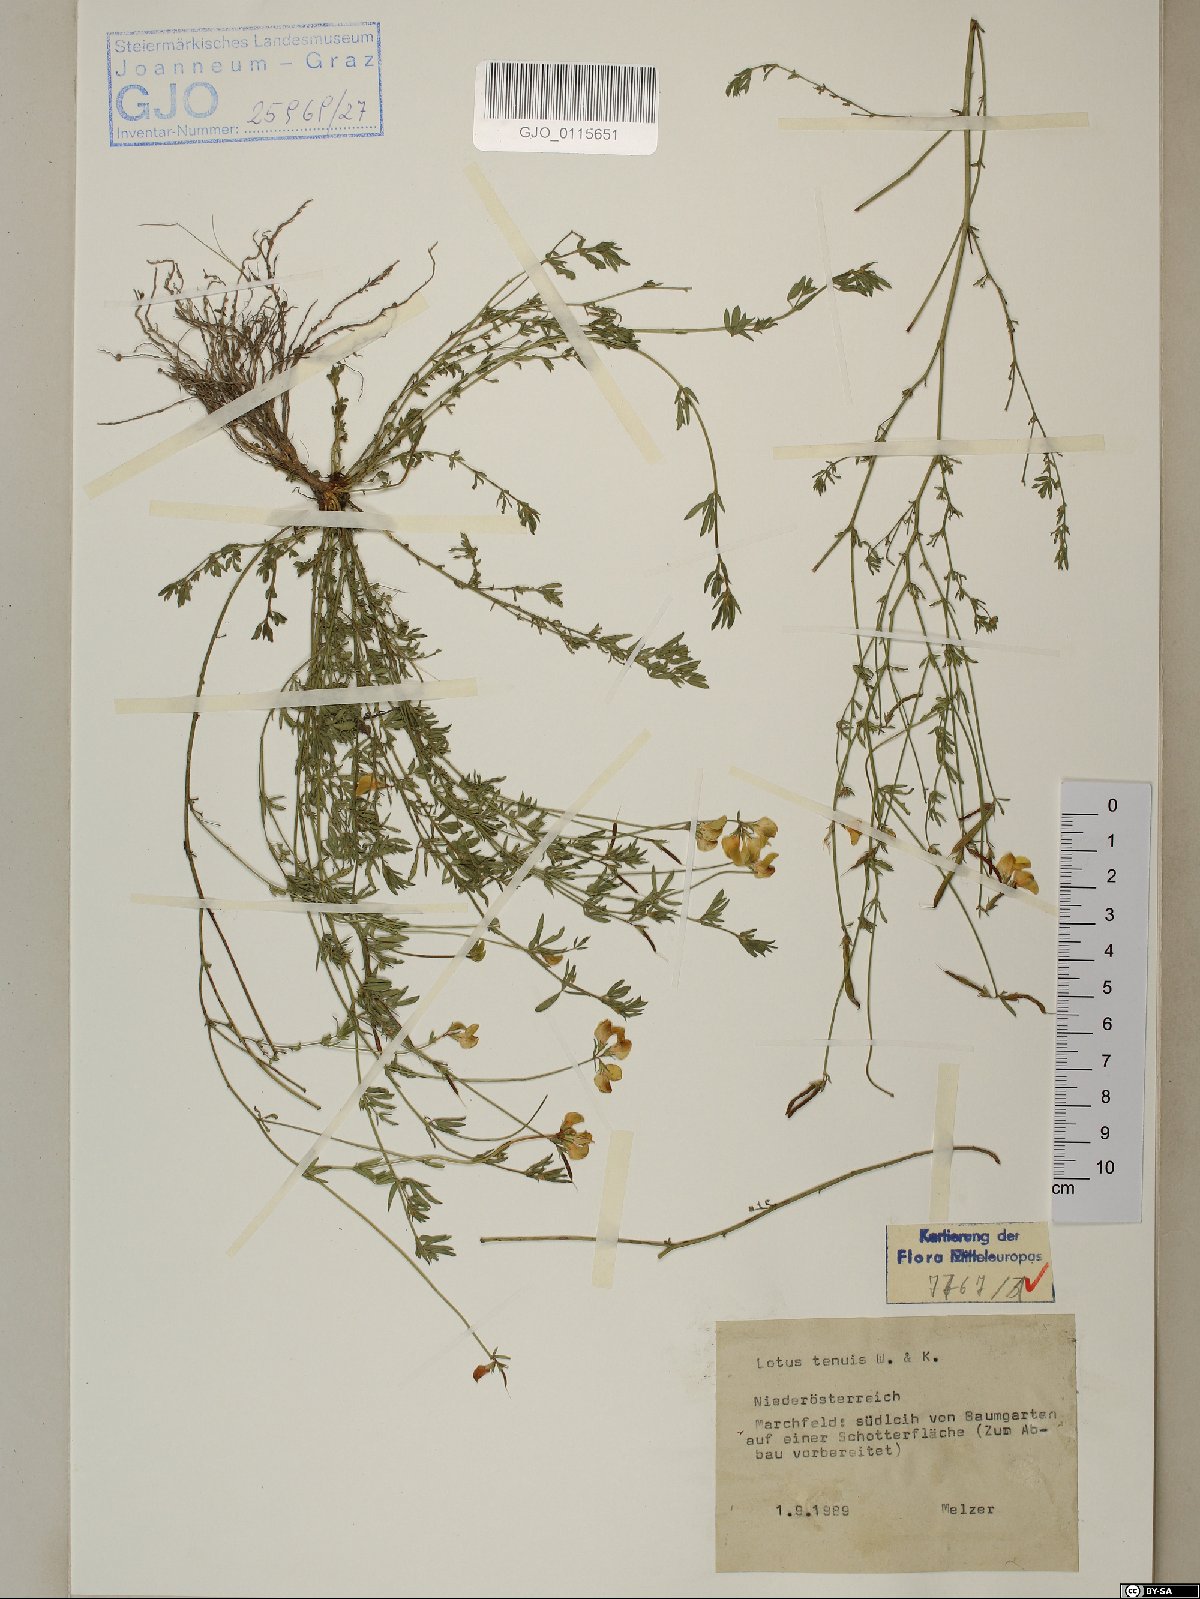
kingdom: Plantae
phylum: Tracheophyta
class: Magnoliopsida
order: Fabales
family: Fabaceae
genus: Lotus
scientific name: Lotus tenuis
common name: Narrow-leaved bird's-foot-trefoil
